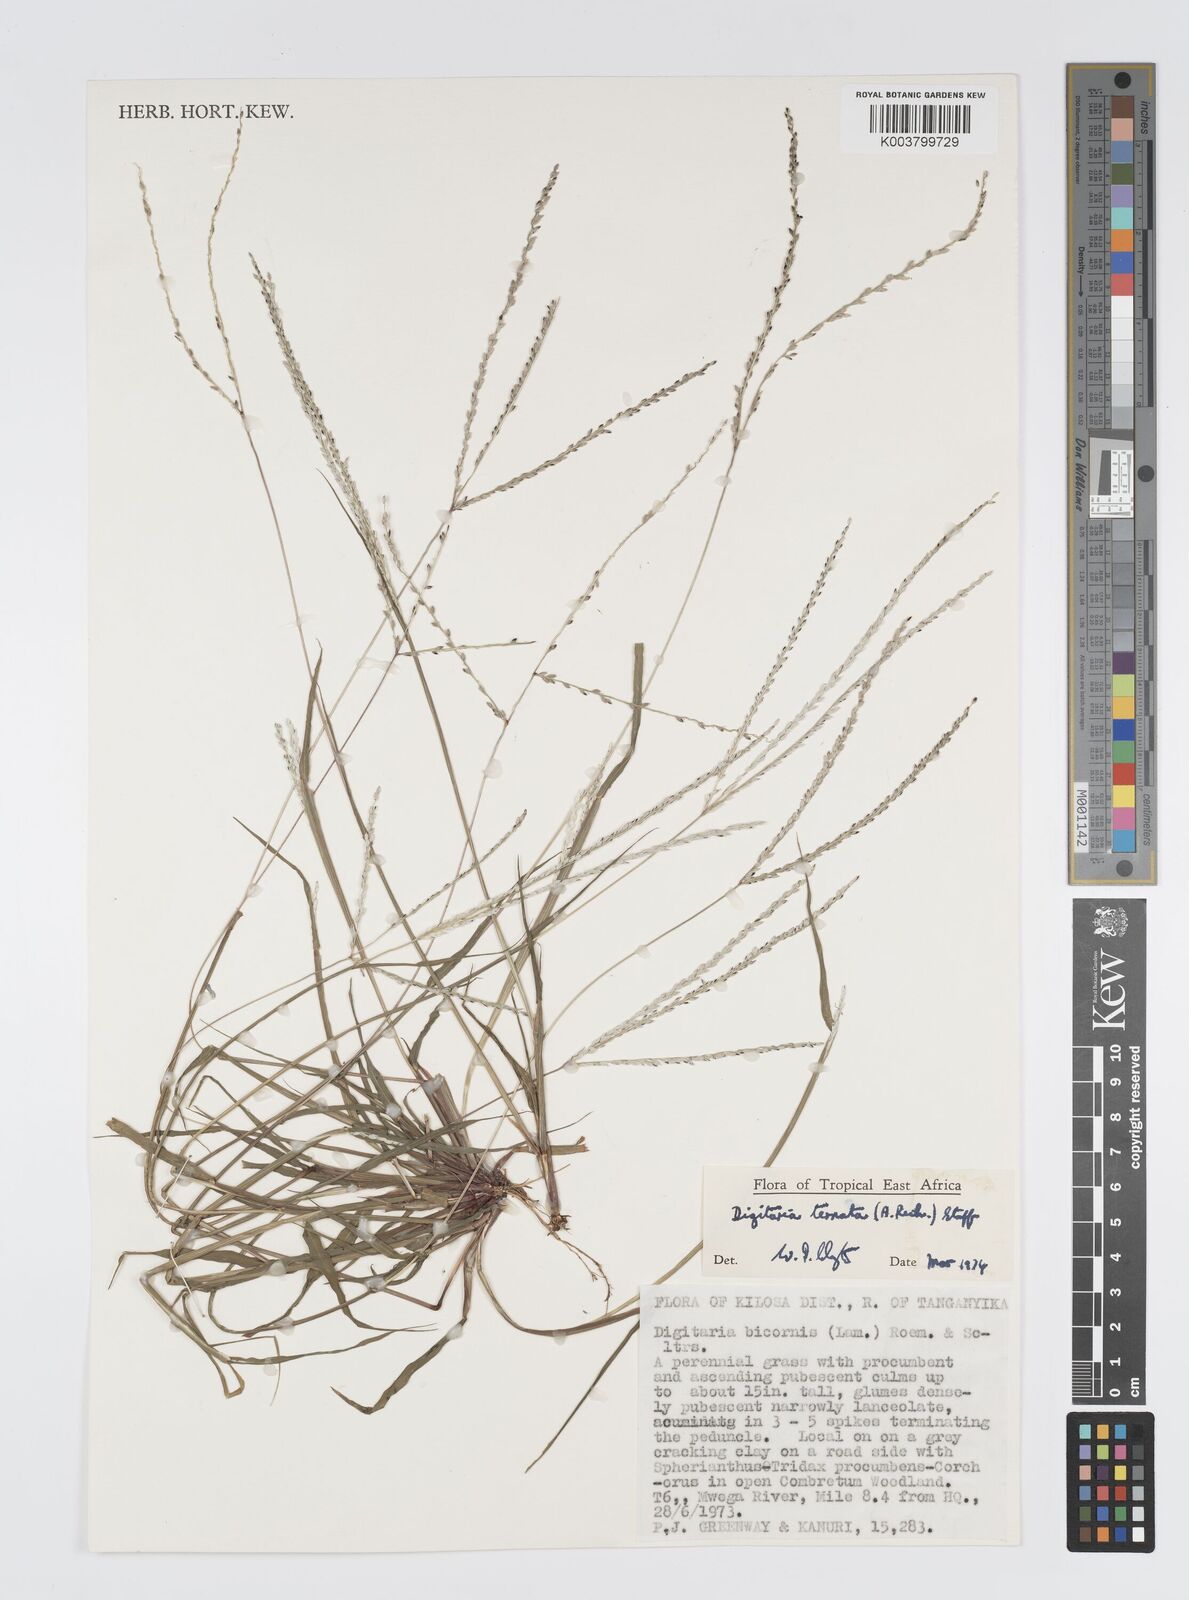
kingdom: Plantae
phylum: Tracheophyta
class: Liliopsida
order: Poales
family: Poaceae
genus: Digitaria
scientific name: Digitaria ternata
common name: Blackseed crabgrass
